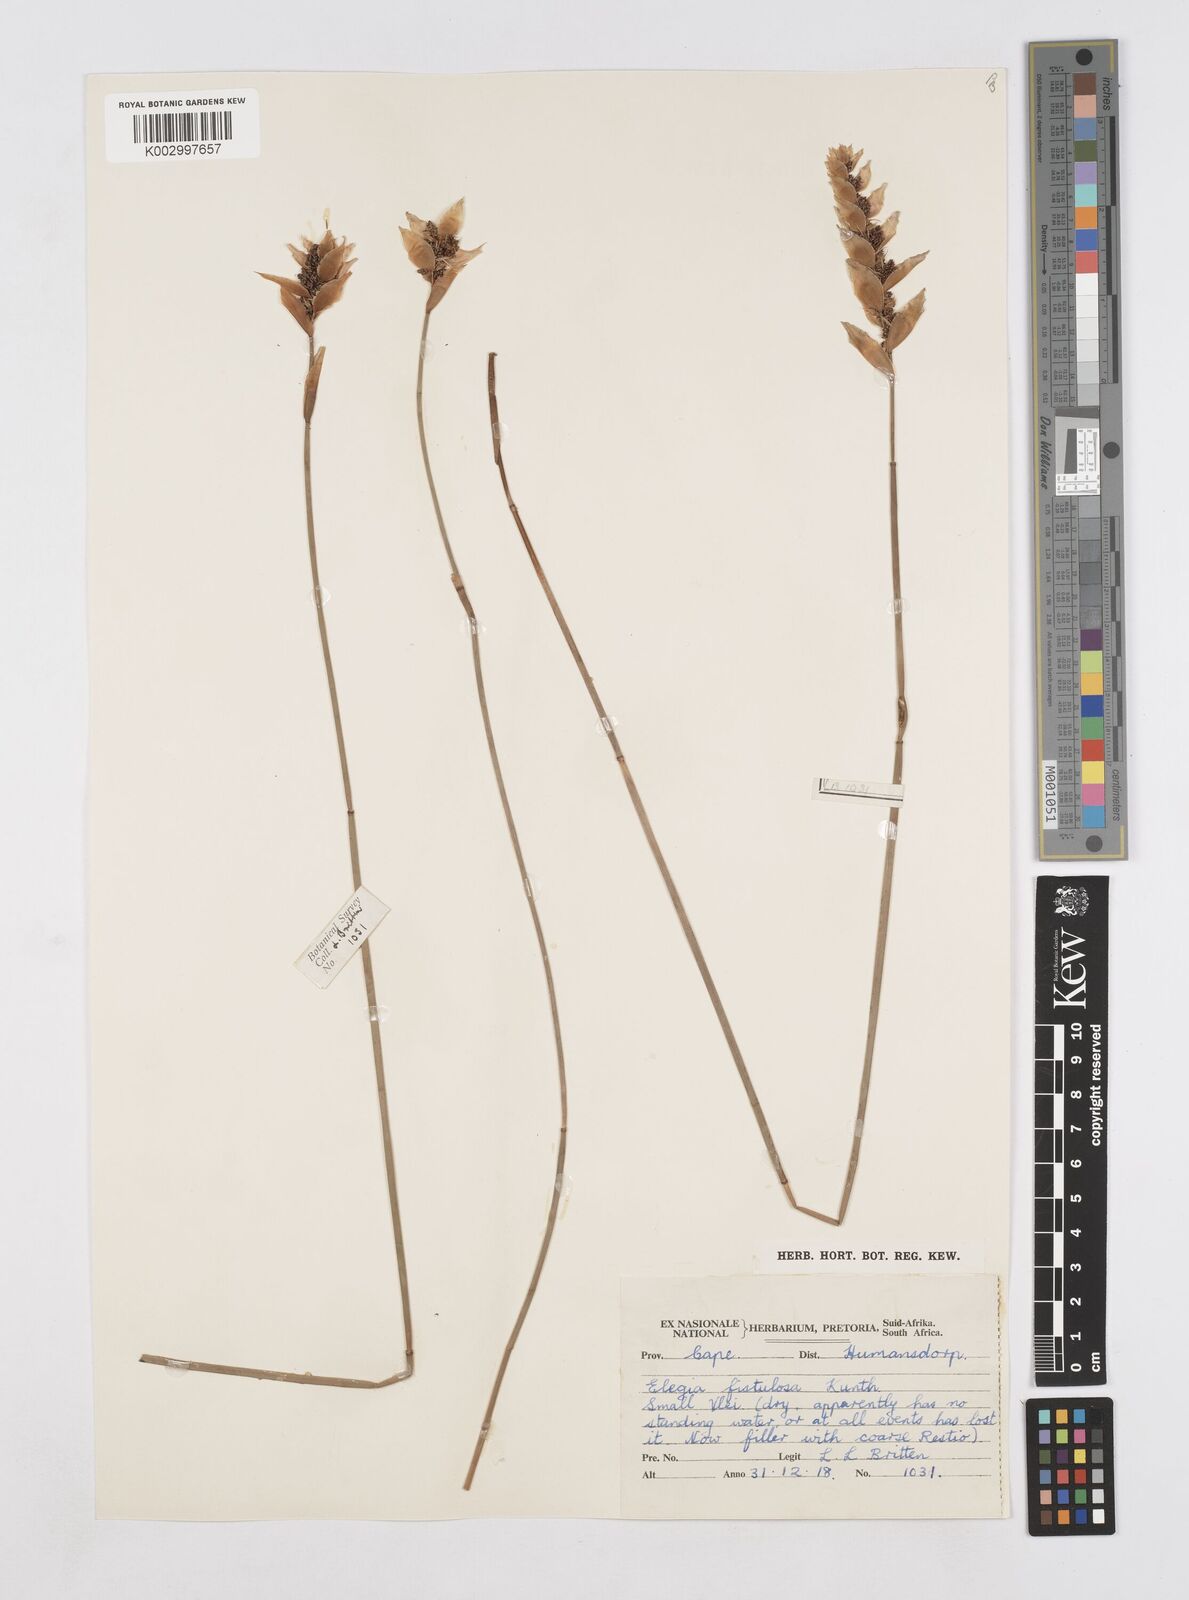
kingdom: Plantae
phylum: Tracheophyta
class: Liliopsida
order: Poales
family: Restionaceae
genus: Elegia
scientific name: Elegia fistulosa
